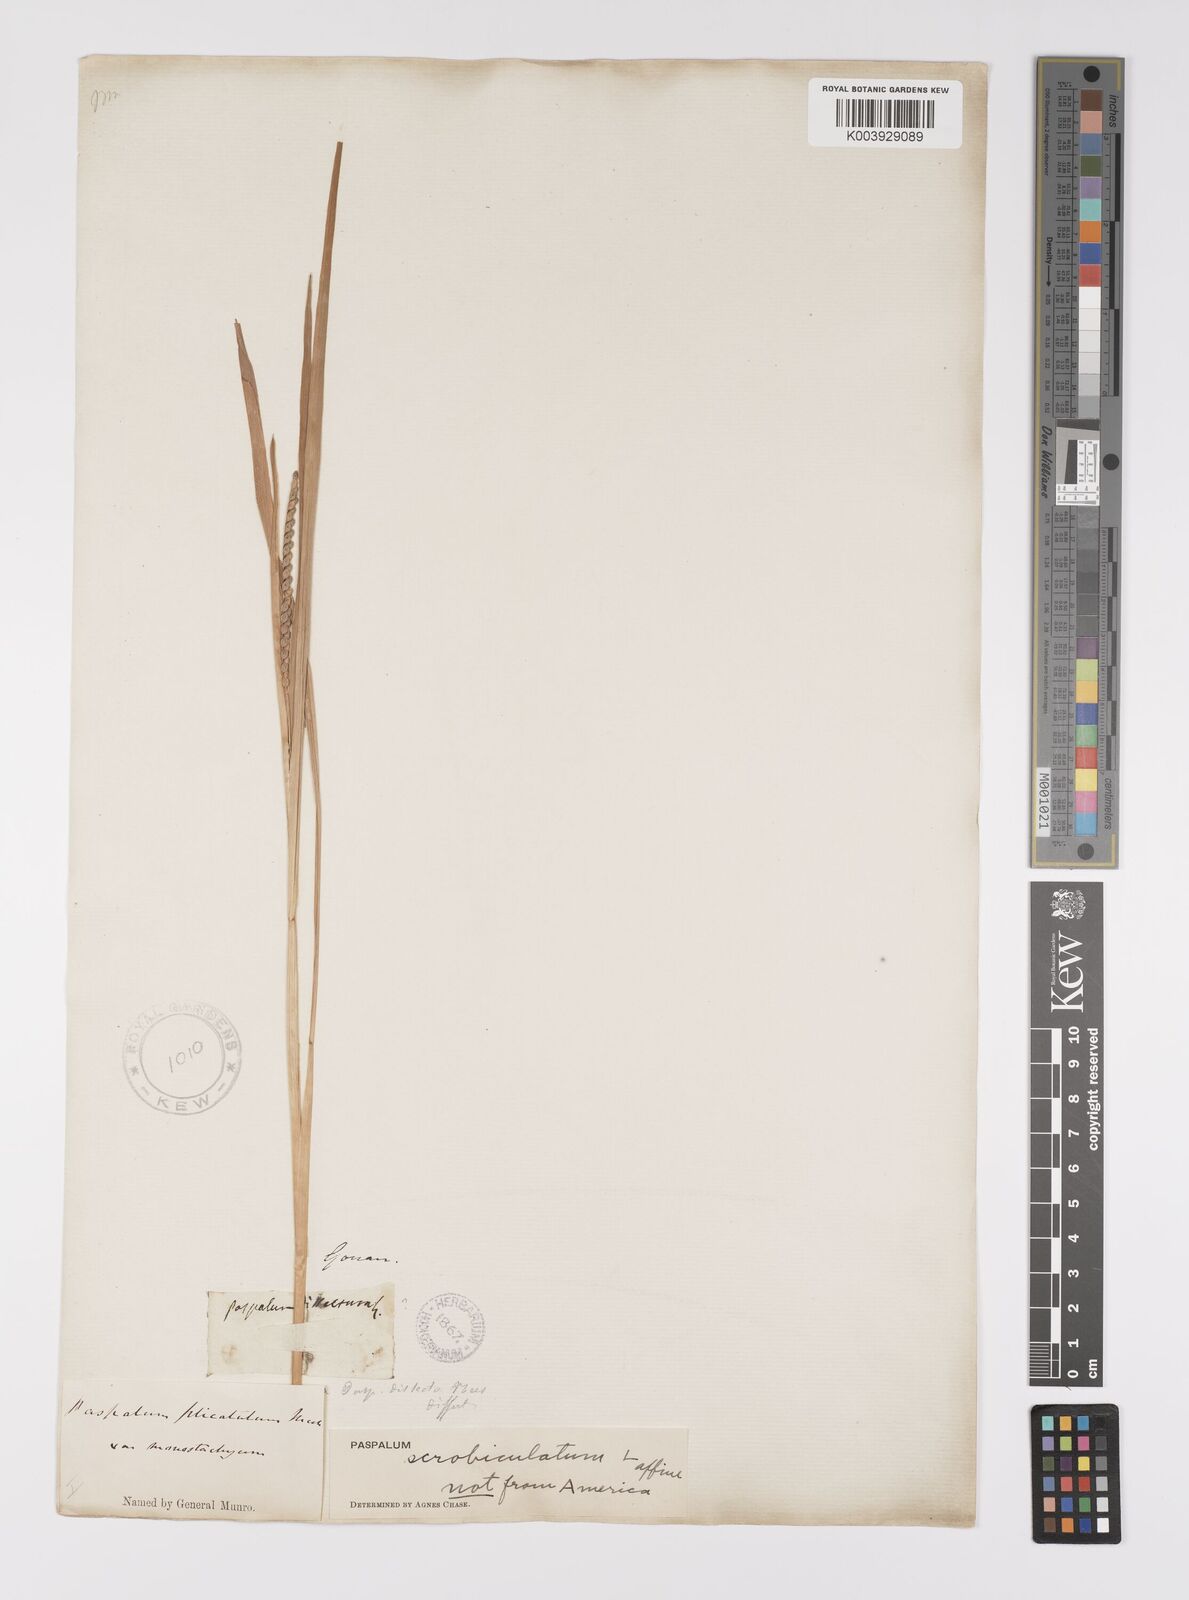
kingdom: Plantae
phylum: Tracheophyta
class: Liliopsida
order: Poales
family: Poaceae
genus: Paspalum
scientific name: Paspalum scrobiculatum
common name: Kodo millet
